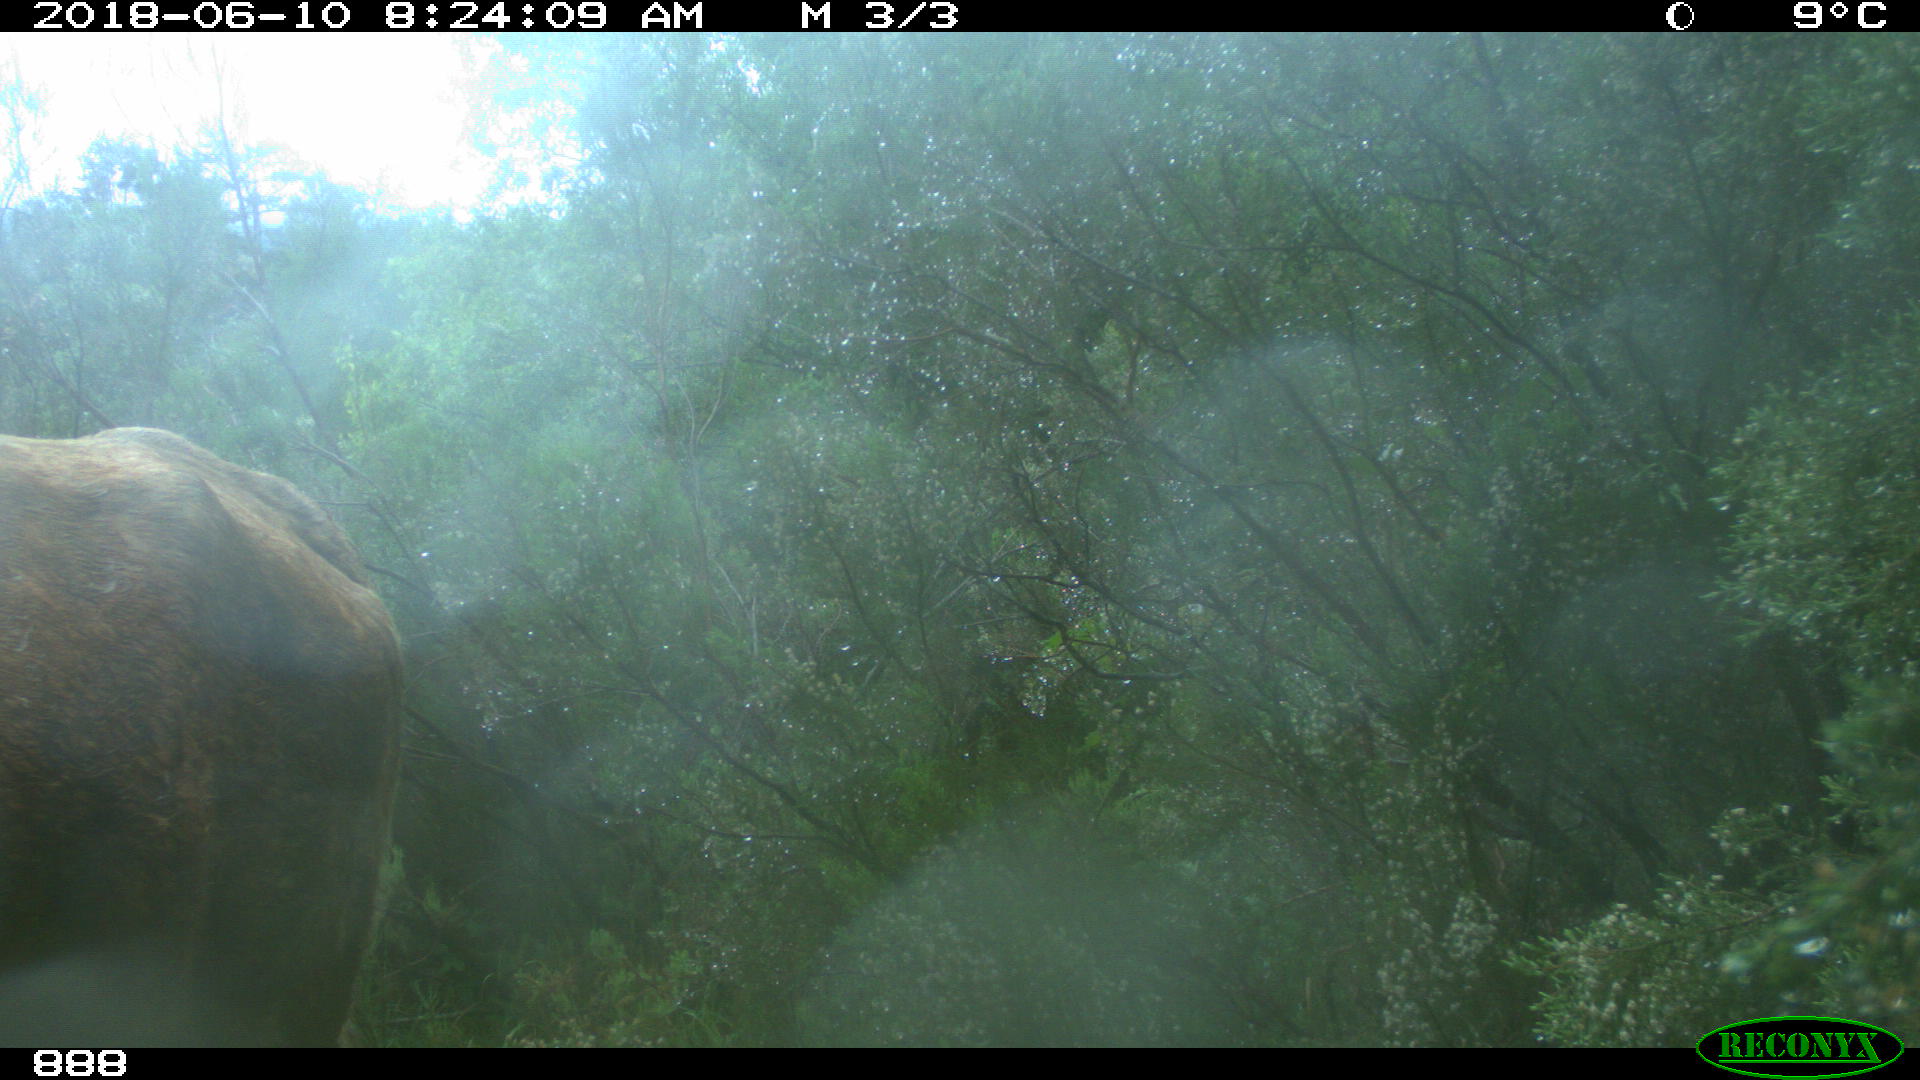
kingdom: Animalia
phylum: Chordata
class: Mammalia
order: Artiodactyla
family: Bovidae
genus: Bos
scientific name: Bos taurus
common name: Domesticated cattle
